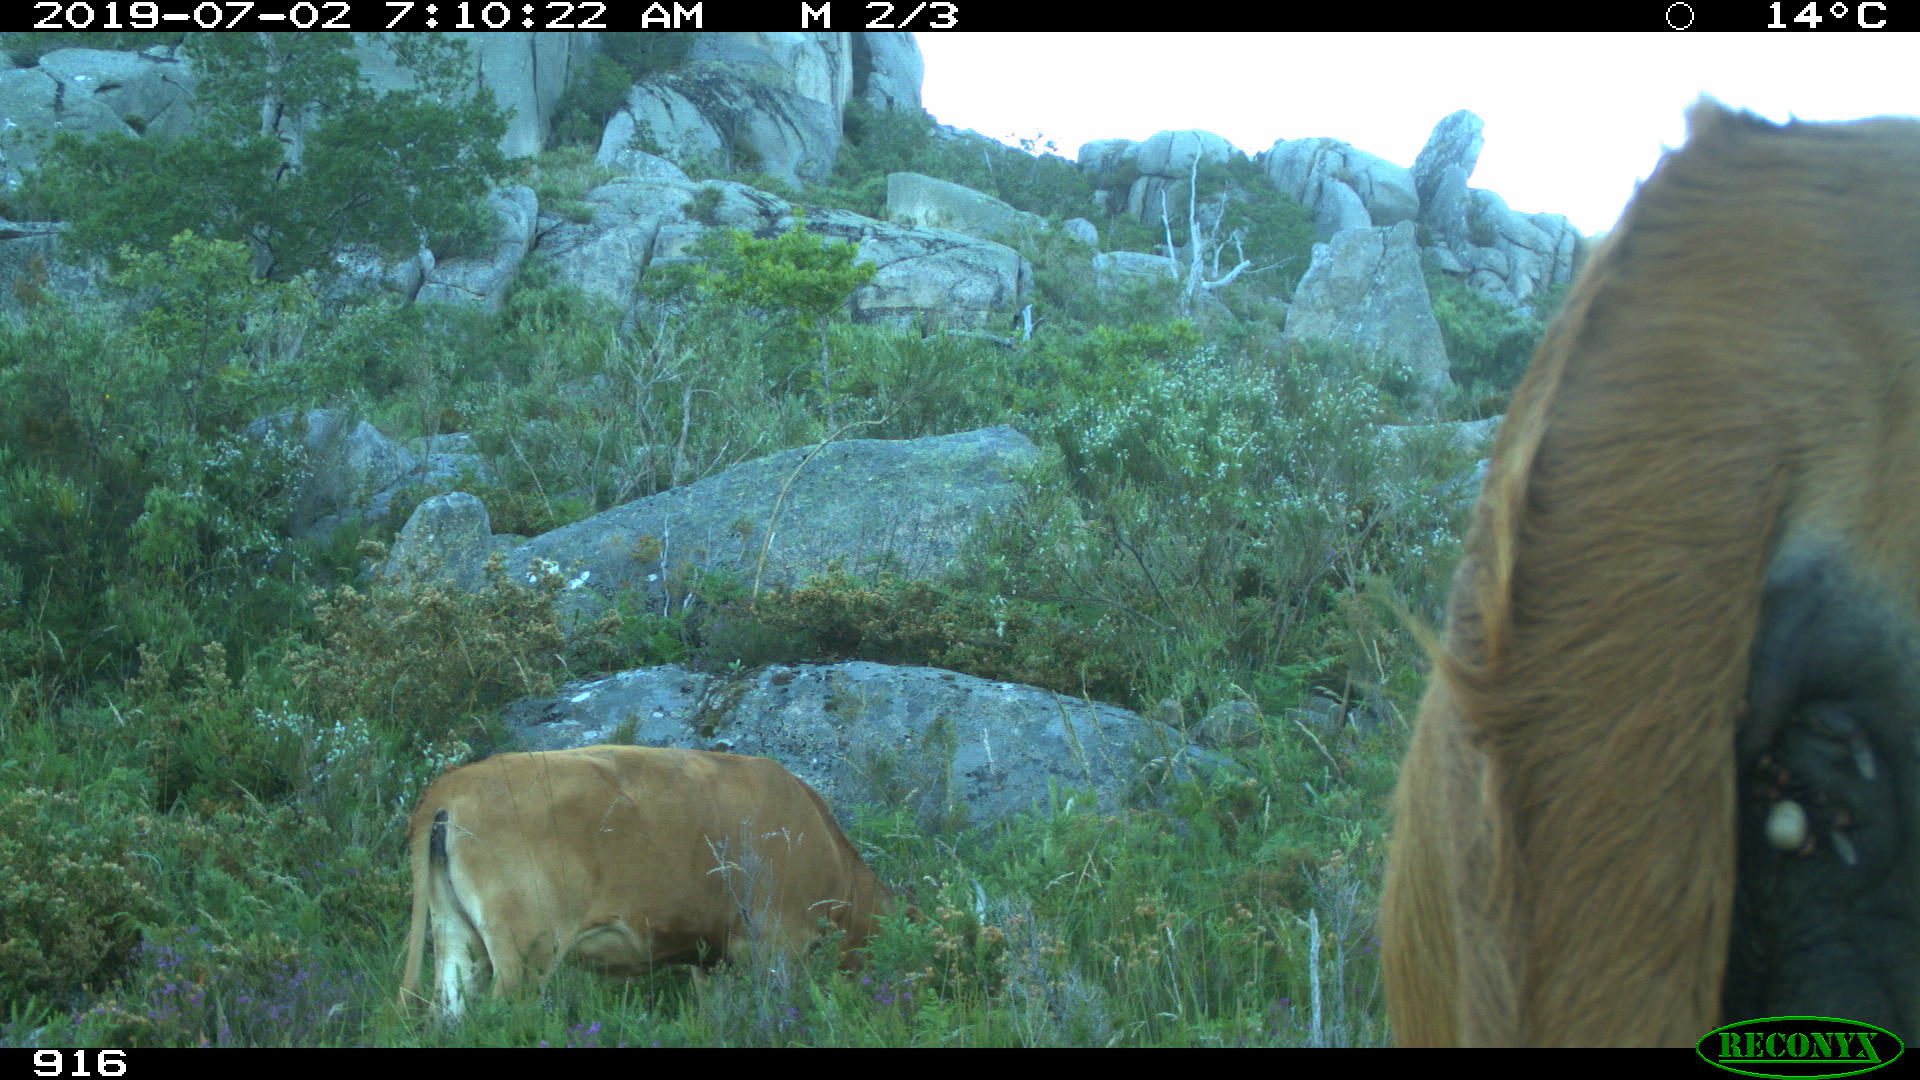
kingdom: Animalia
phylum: Chordata
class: Mammalia
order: Artiodactyla
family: Bovidae
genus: Bos
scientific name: Bos taurus
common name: Domesticated cattle
